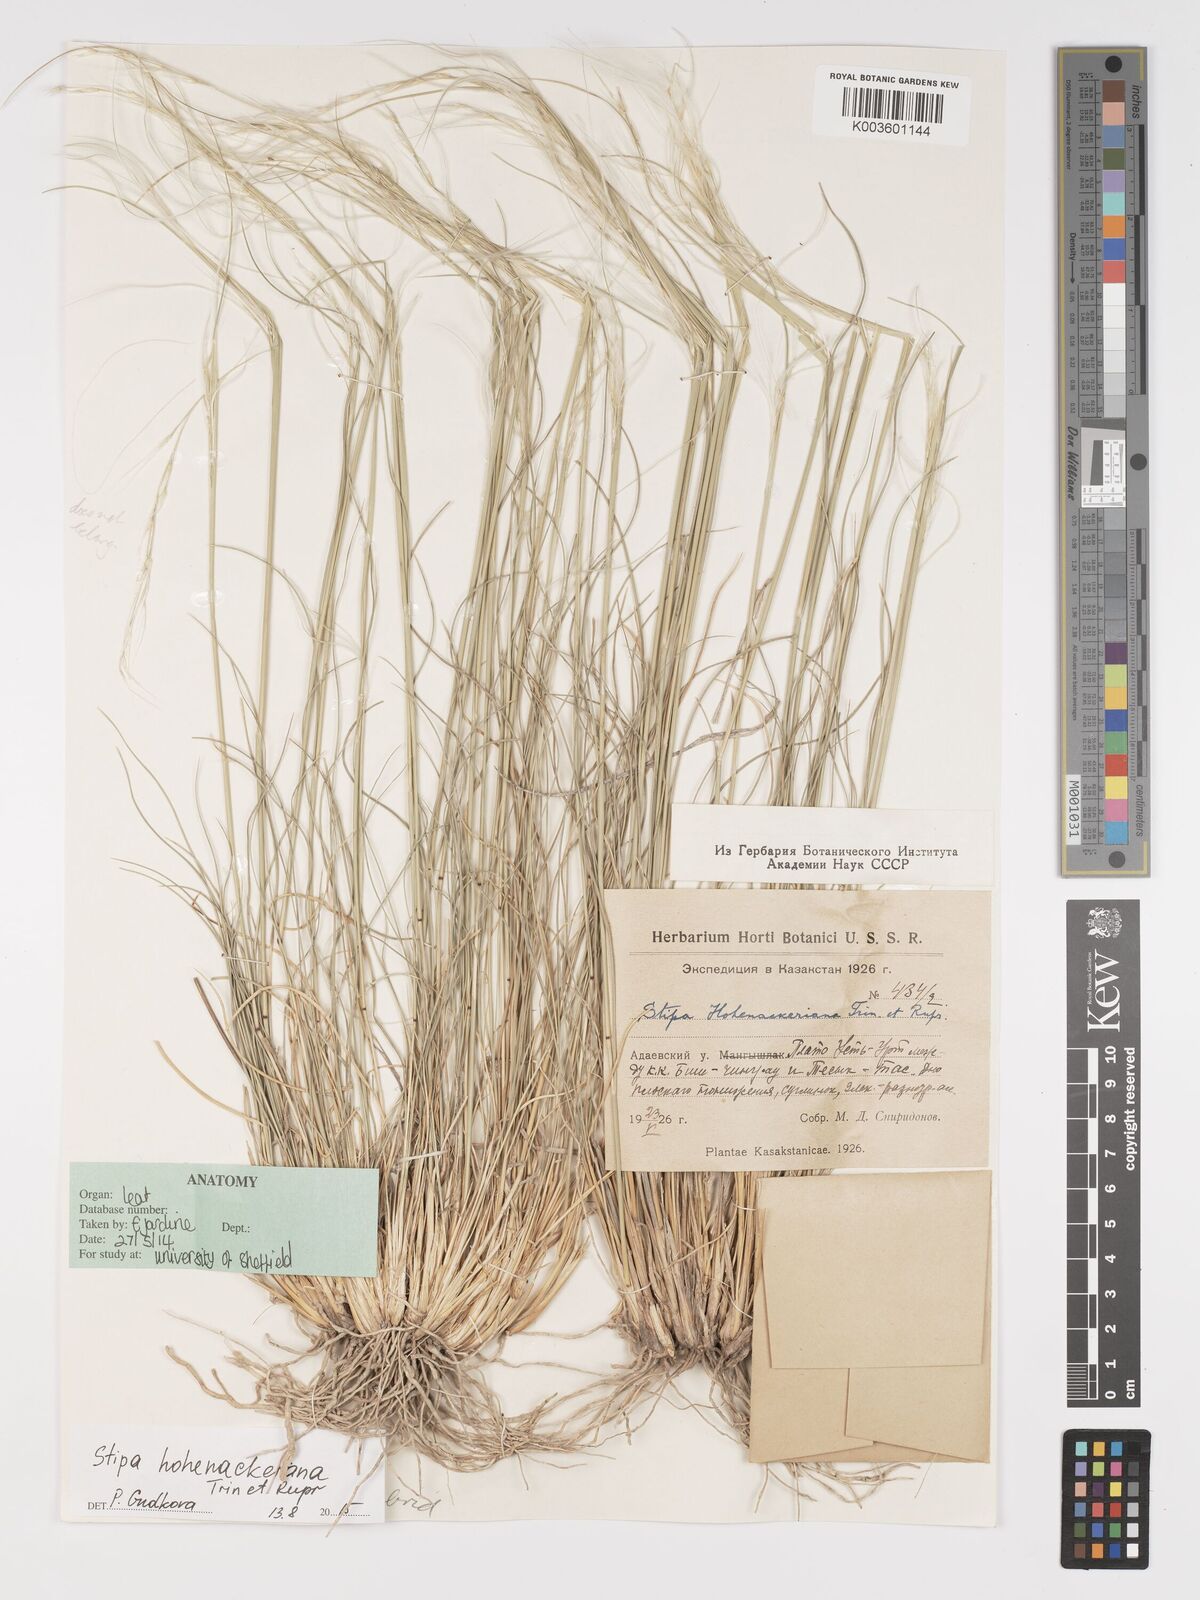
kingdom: Plantae
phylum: Tracheophyta
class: Liliopsida
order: Poales
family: Poaceae
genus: Stipa
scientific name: Stipa hohenackeriana
